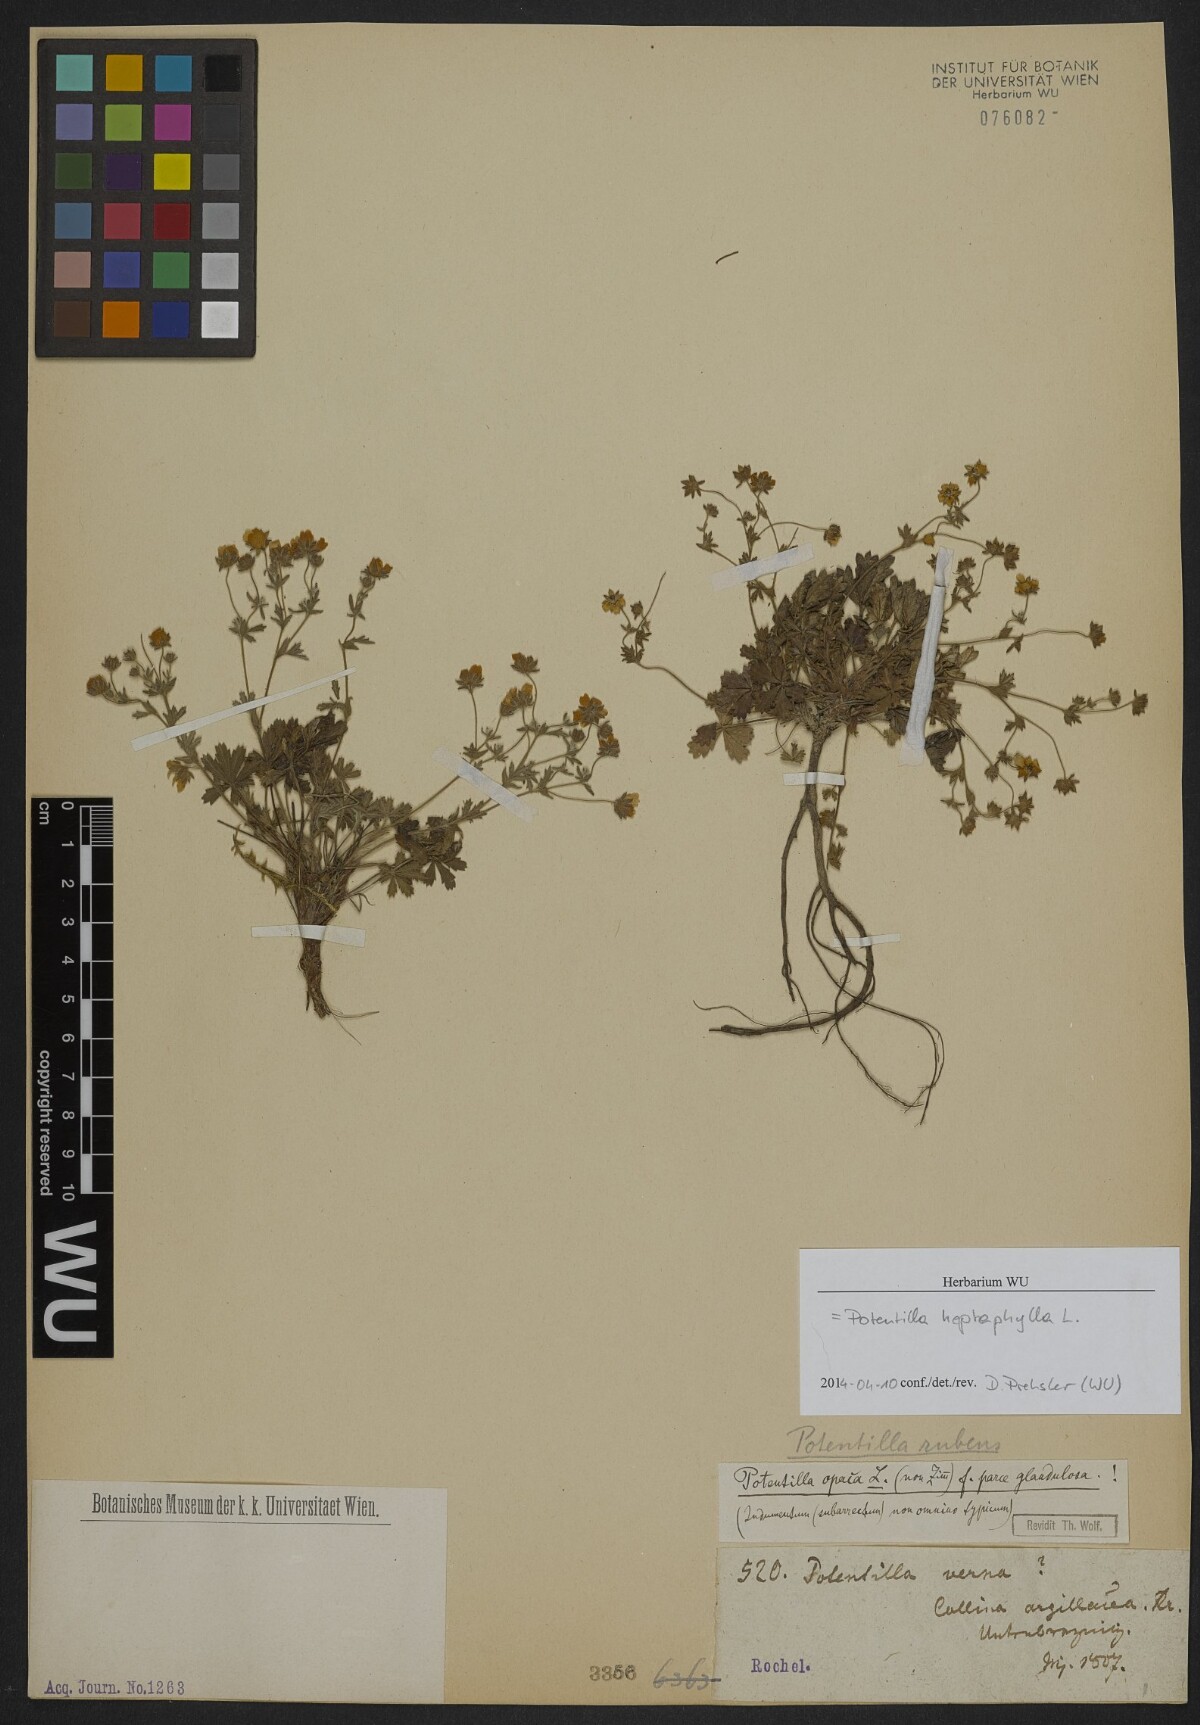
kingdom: Plantae
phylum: Tracheophyta
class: Magnoliopsida
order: Rosales
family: Rosaceae
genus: Potentilla
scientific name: Potentilla heptaphylla
